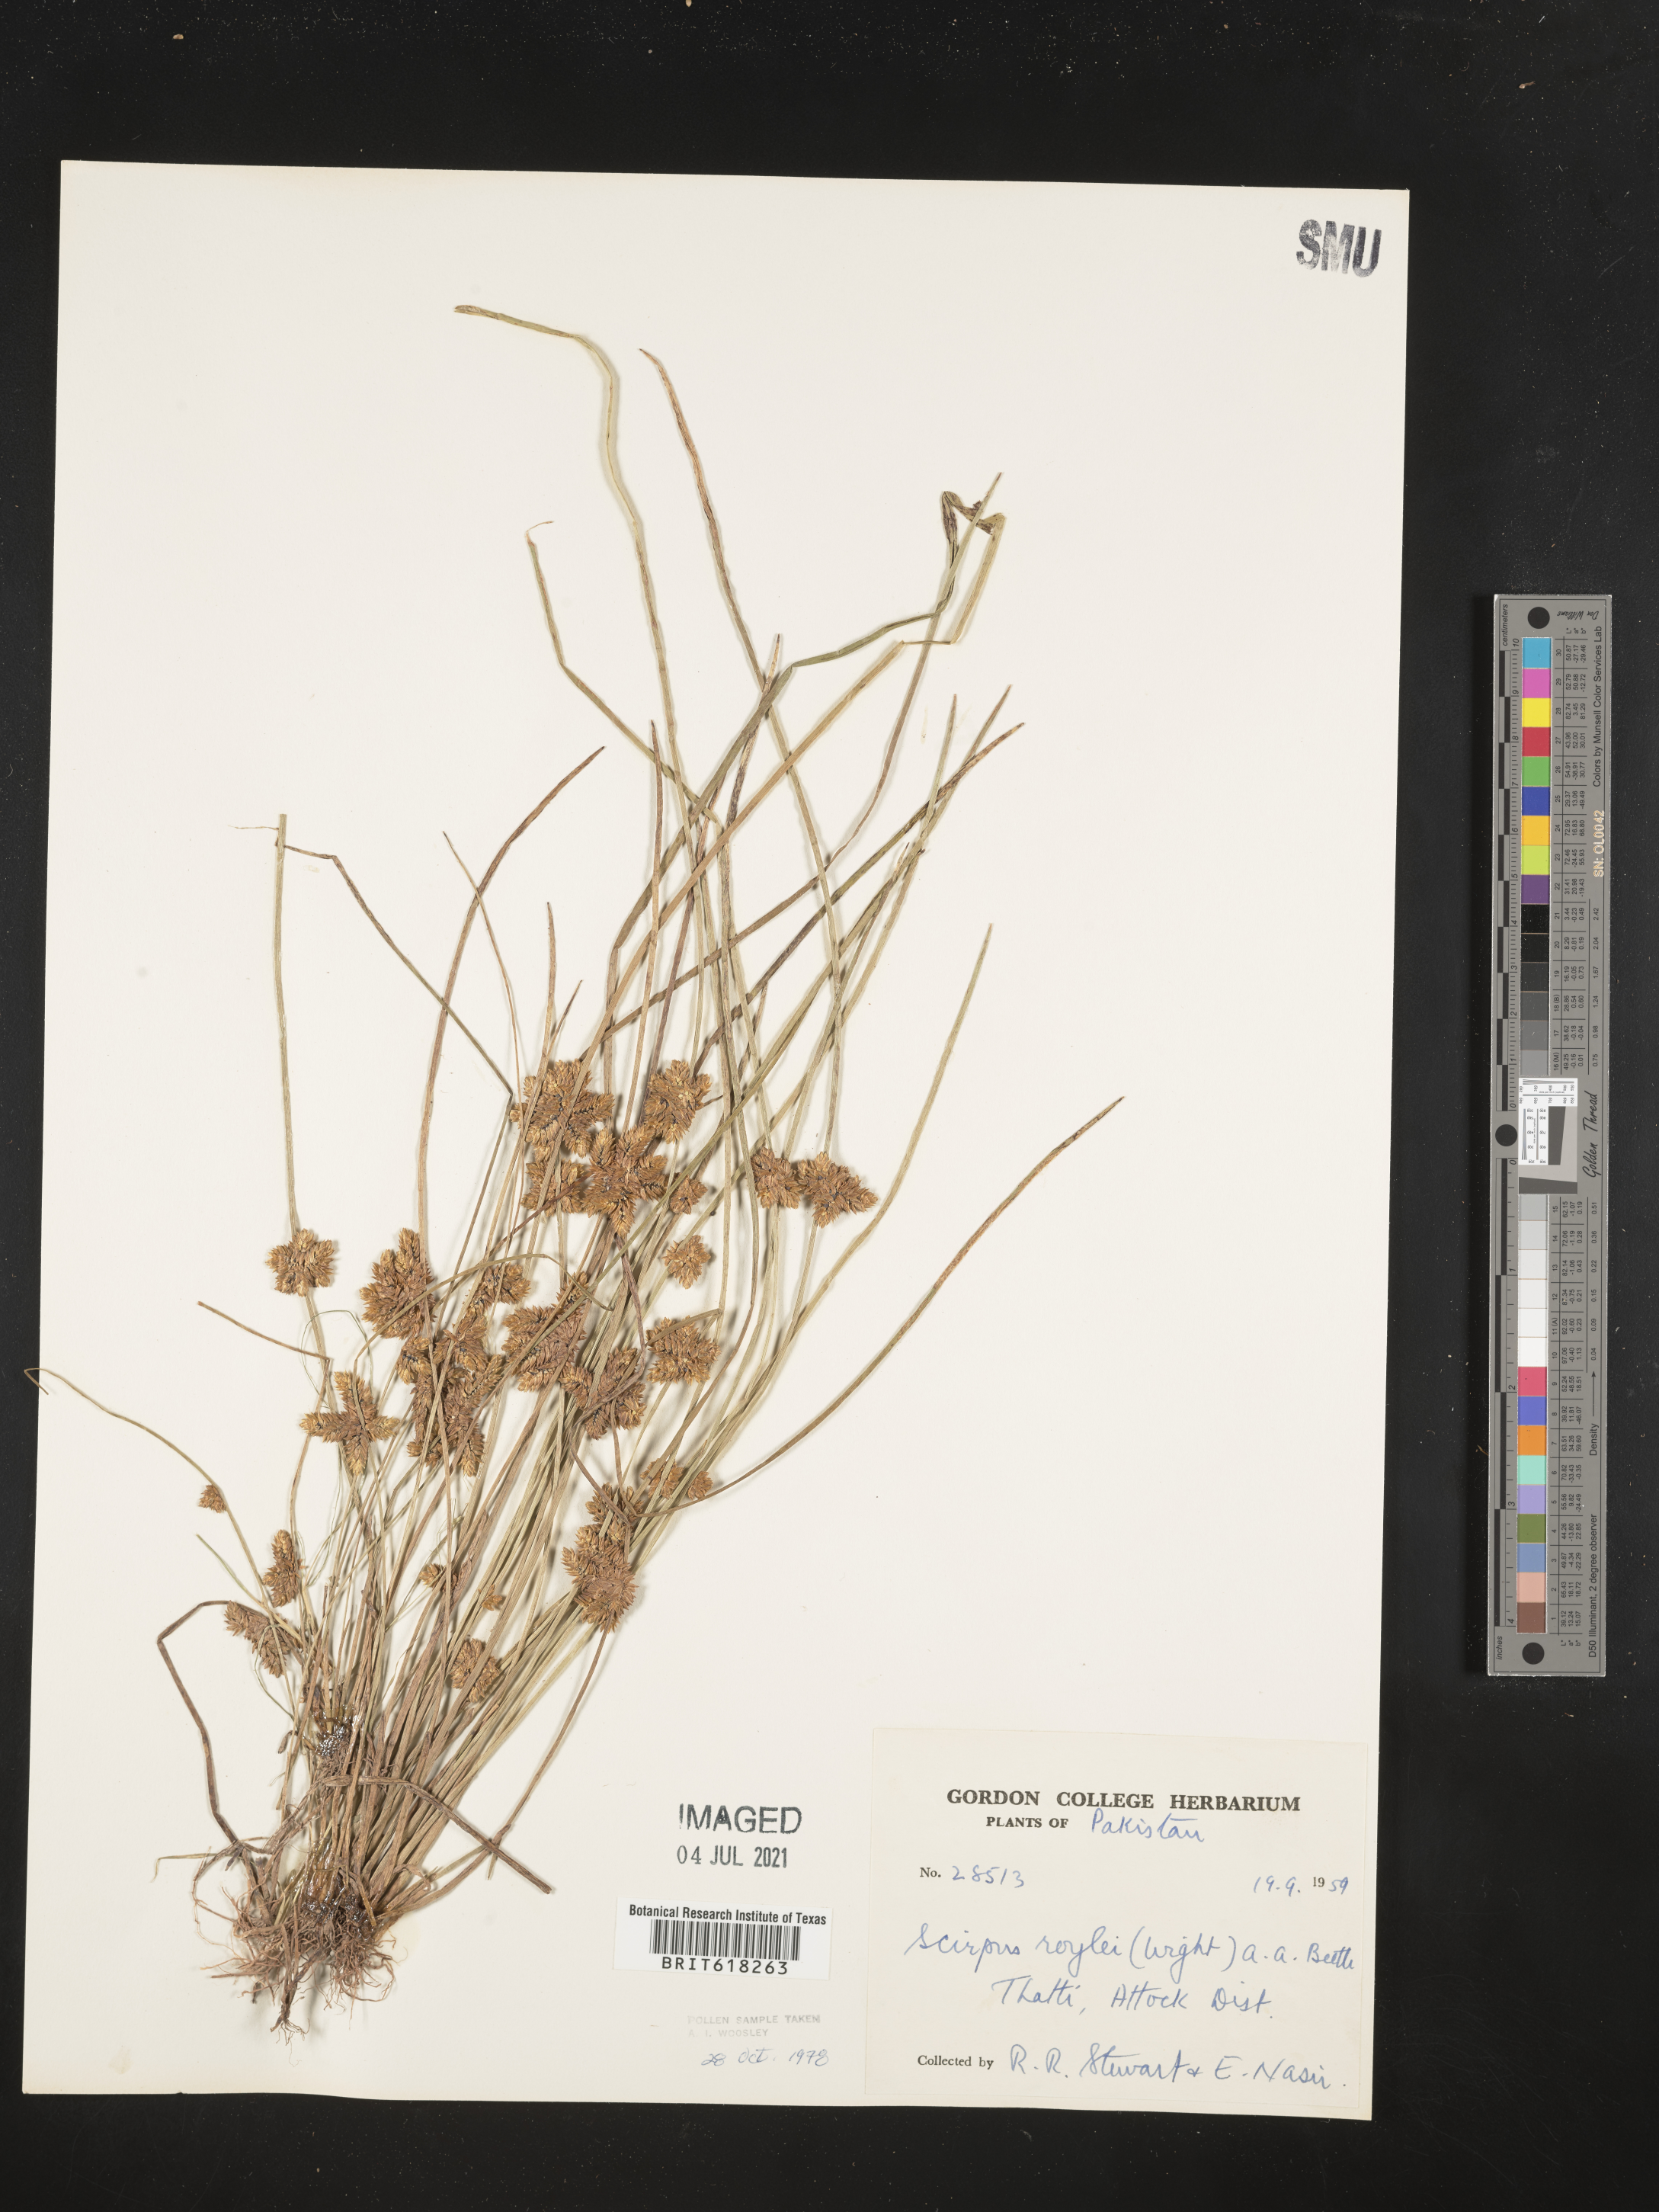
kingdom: Plantae
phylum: Tracheophyta
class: Liliopsida
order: Poales
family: Cyperaceae
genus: Schoenoplectiella
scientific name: Schoenoplectiella roylei
